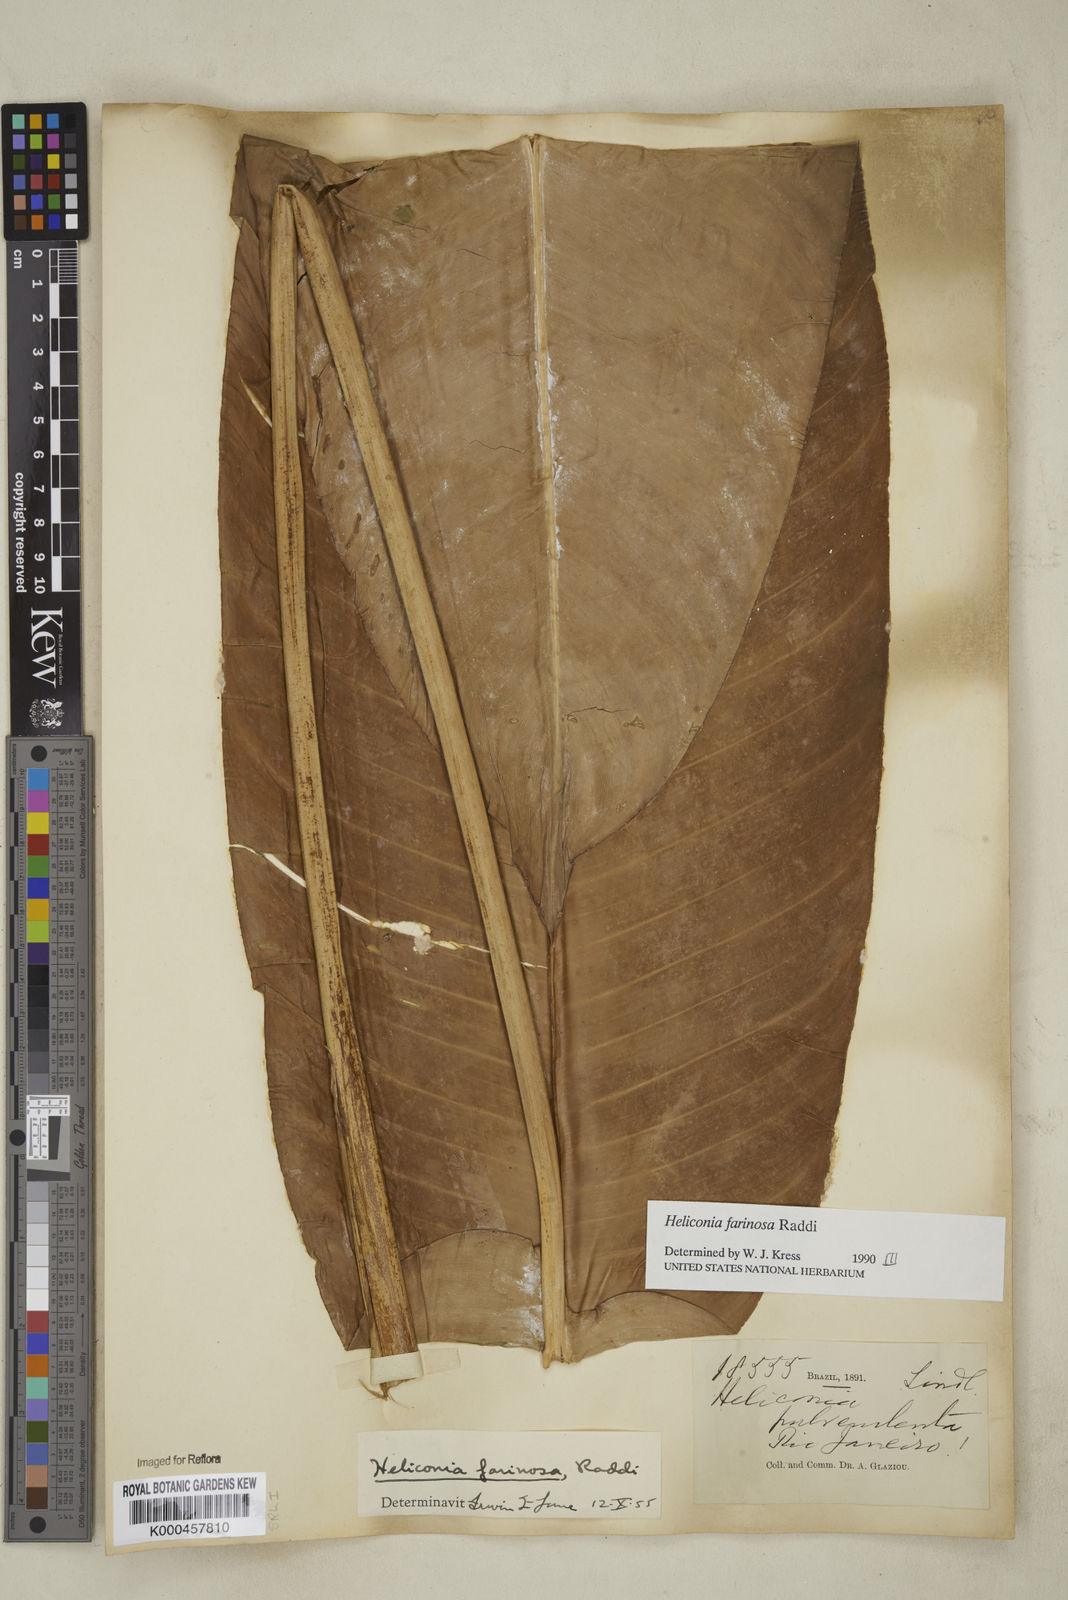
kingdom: Plantae
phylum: Tracheophyta
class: Liliopsida
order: Zingiberales
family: Heliconiaceae
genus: Heliconia
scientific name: Heliconia farinosa
